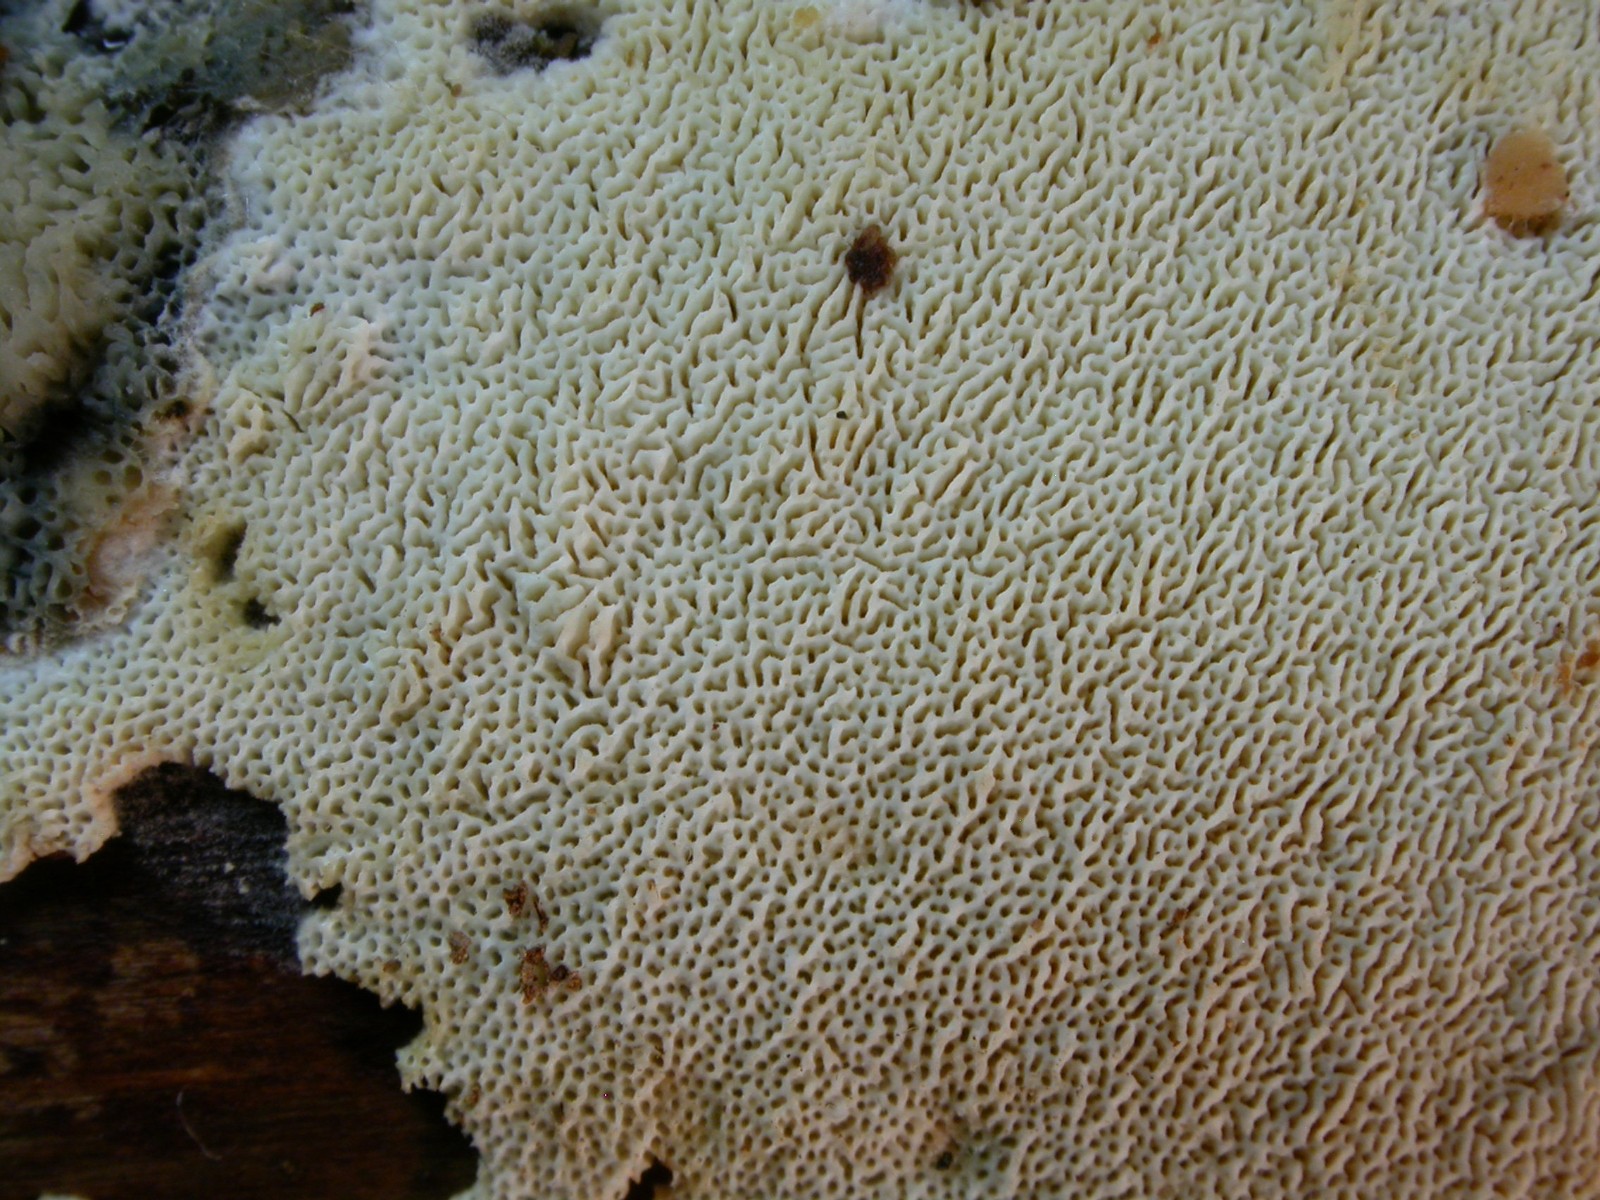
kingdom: Fungi
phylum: Basidiomycota
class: Agaricomycetes
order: Hymenochaetales
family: Schizoporaceae
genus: Xylodon
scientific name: Xylodon subtropicus
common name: labyrint-tandsvamp
